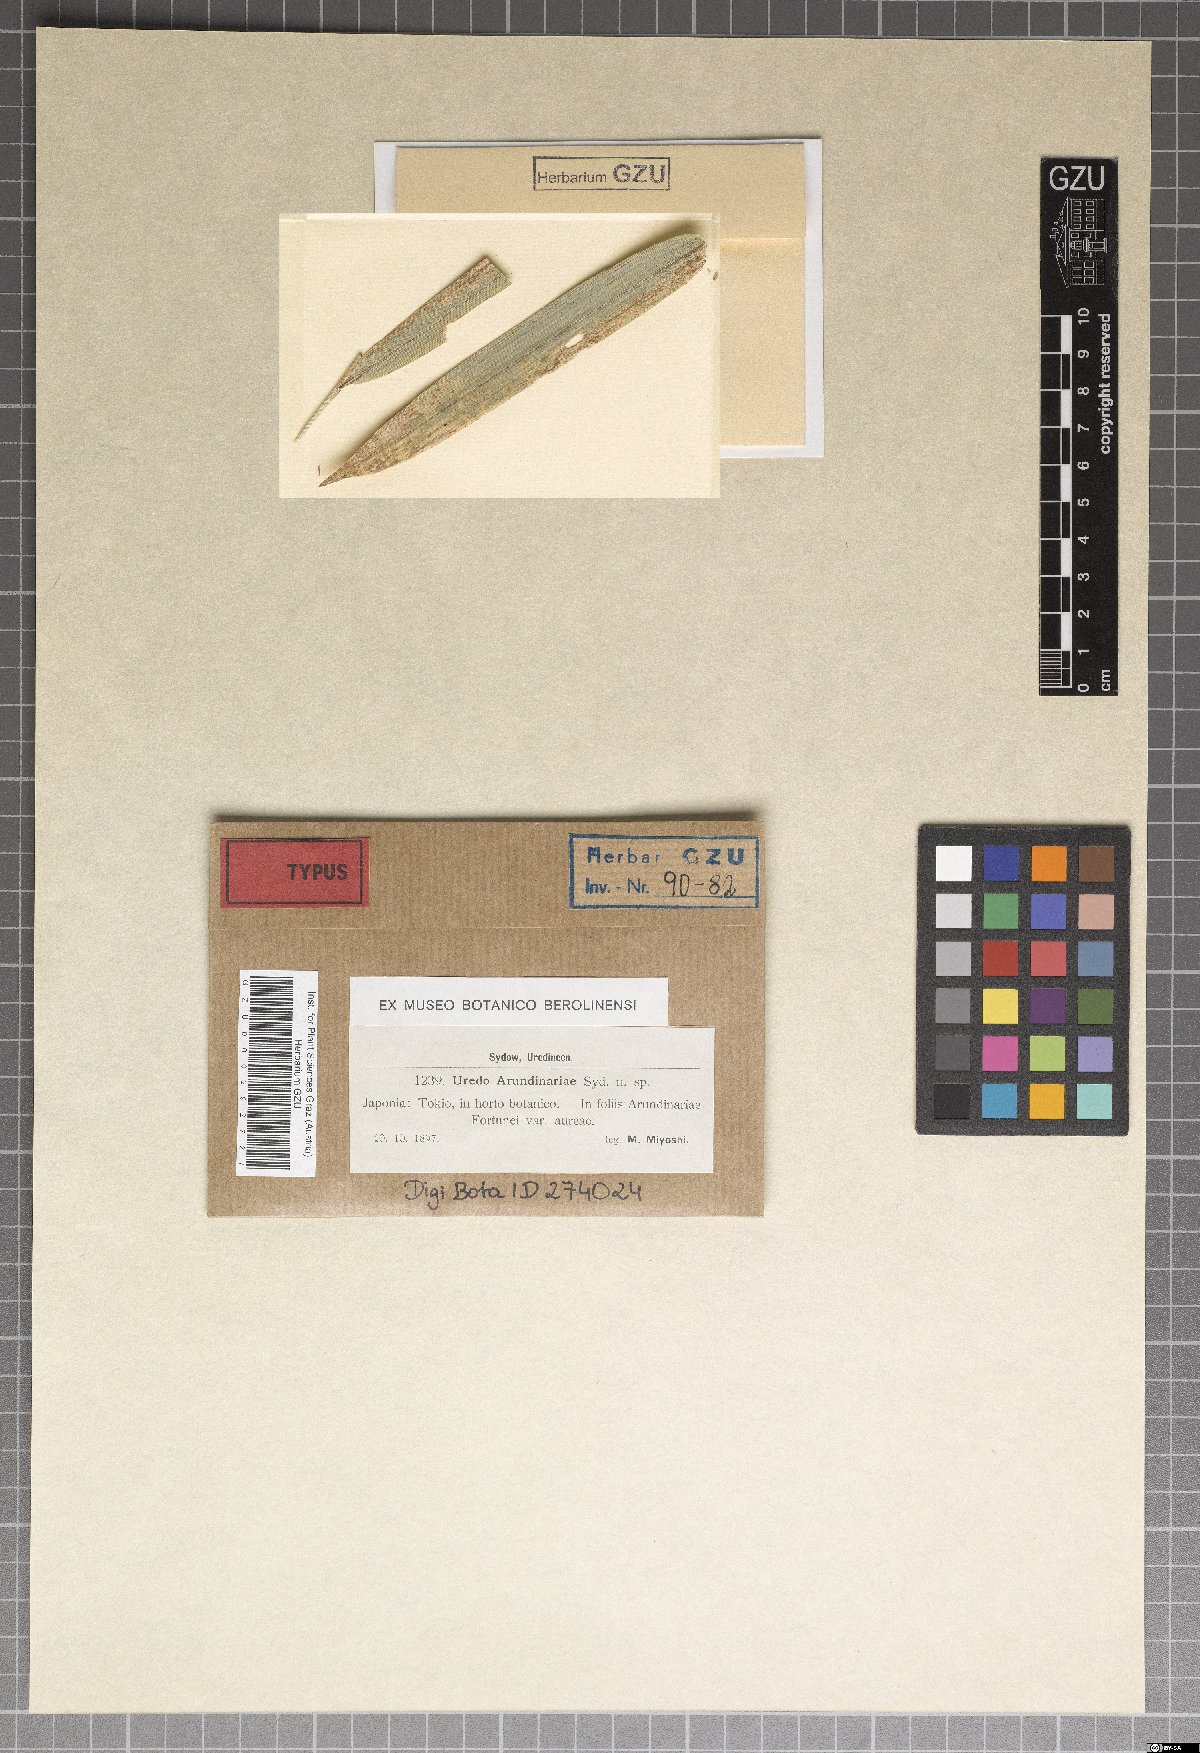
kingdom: Plantae
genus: Uredo
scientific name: Uredo
